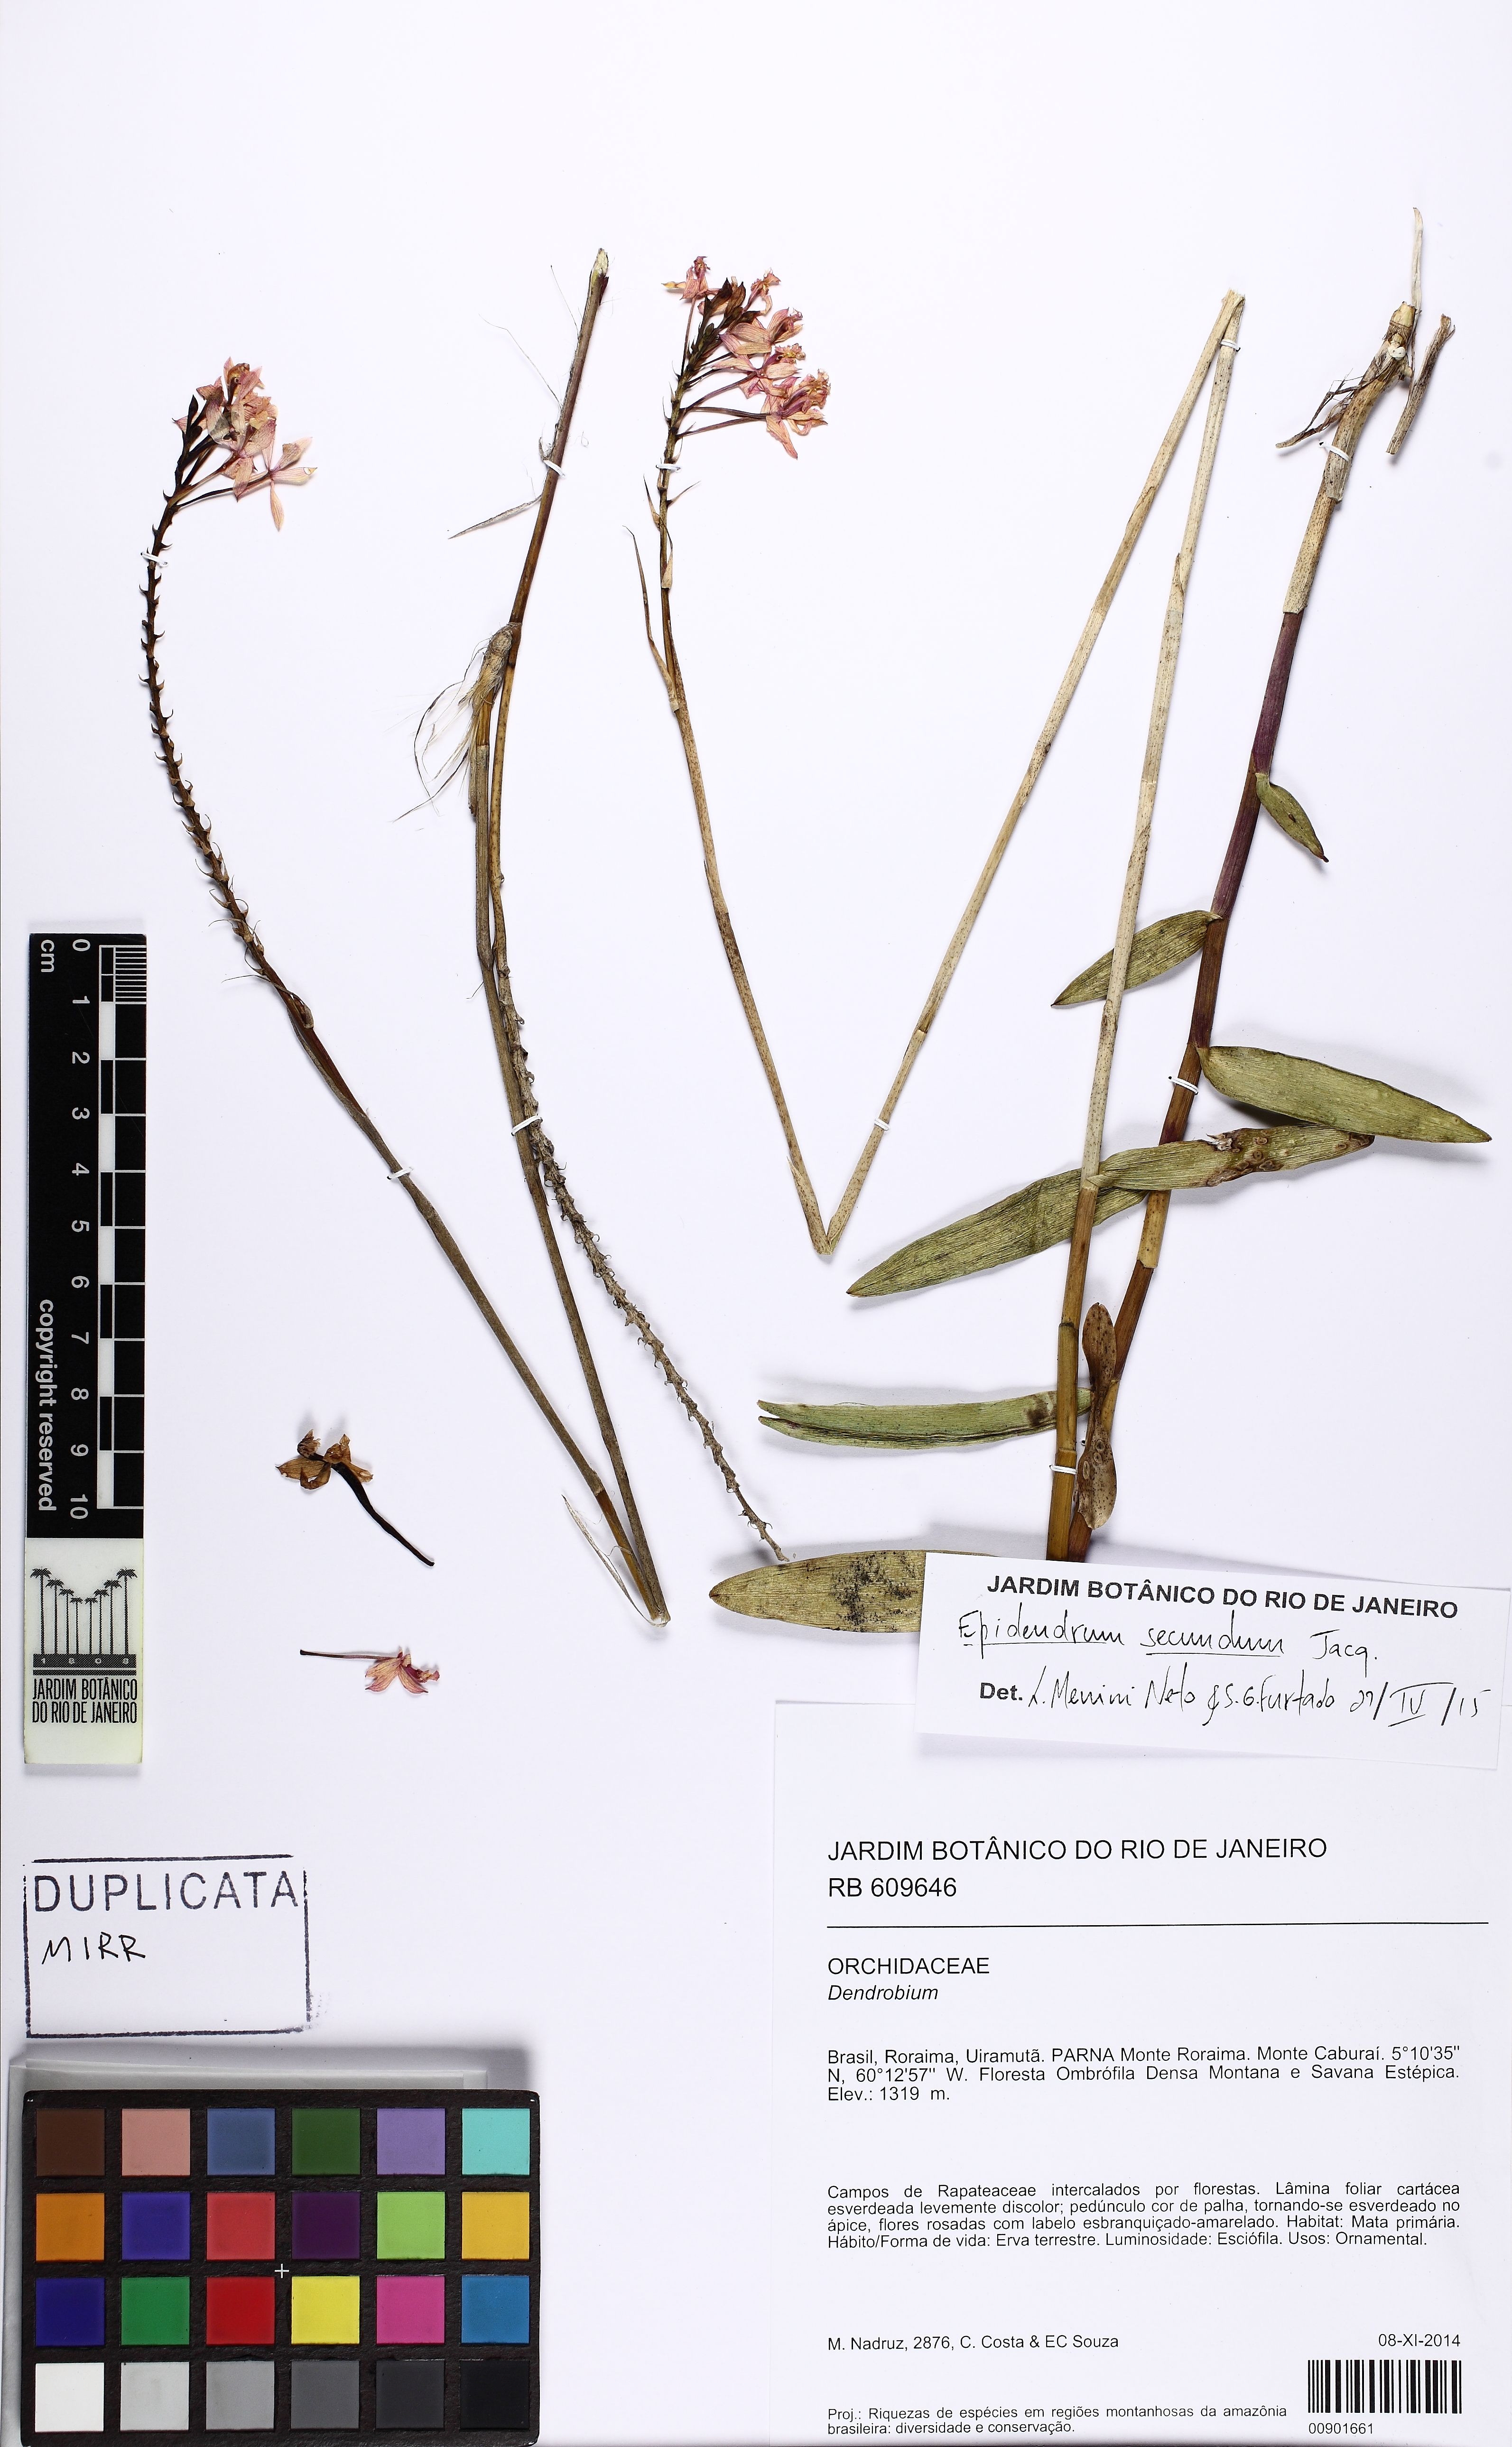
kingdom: Plantae
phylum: Tracheophyta
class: Liliopsida
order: Asparagales
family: Orchidaceae
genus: Epidendrum
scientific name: Epidendrum secundum
